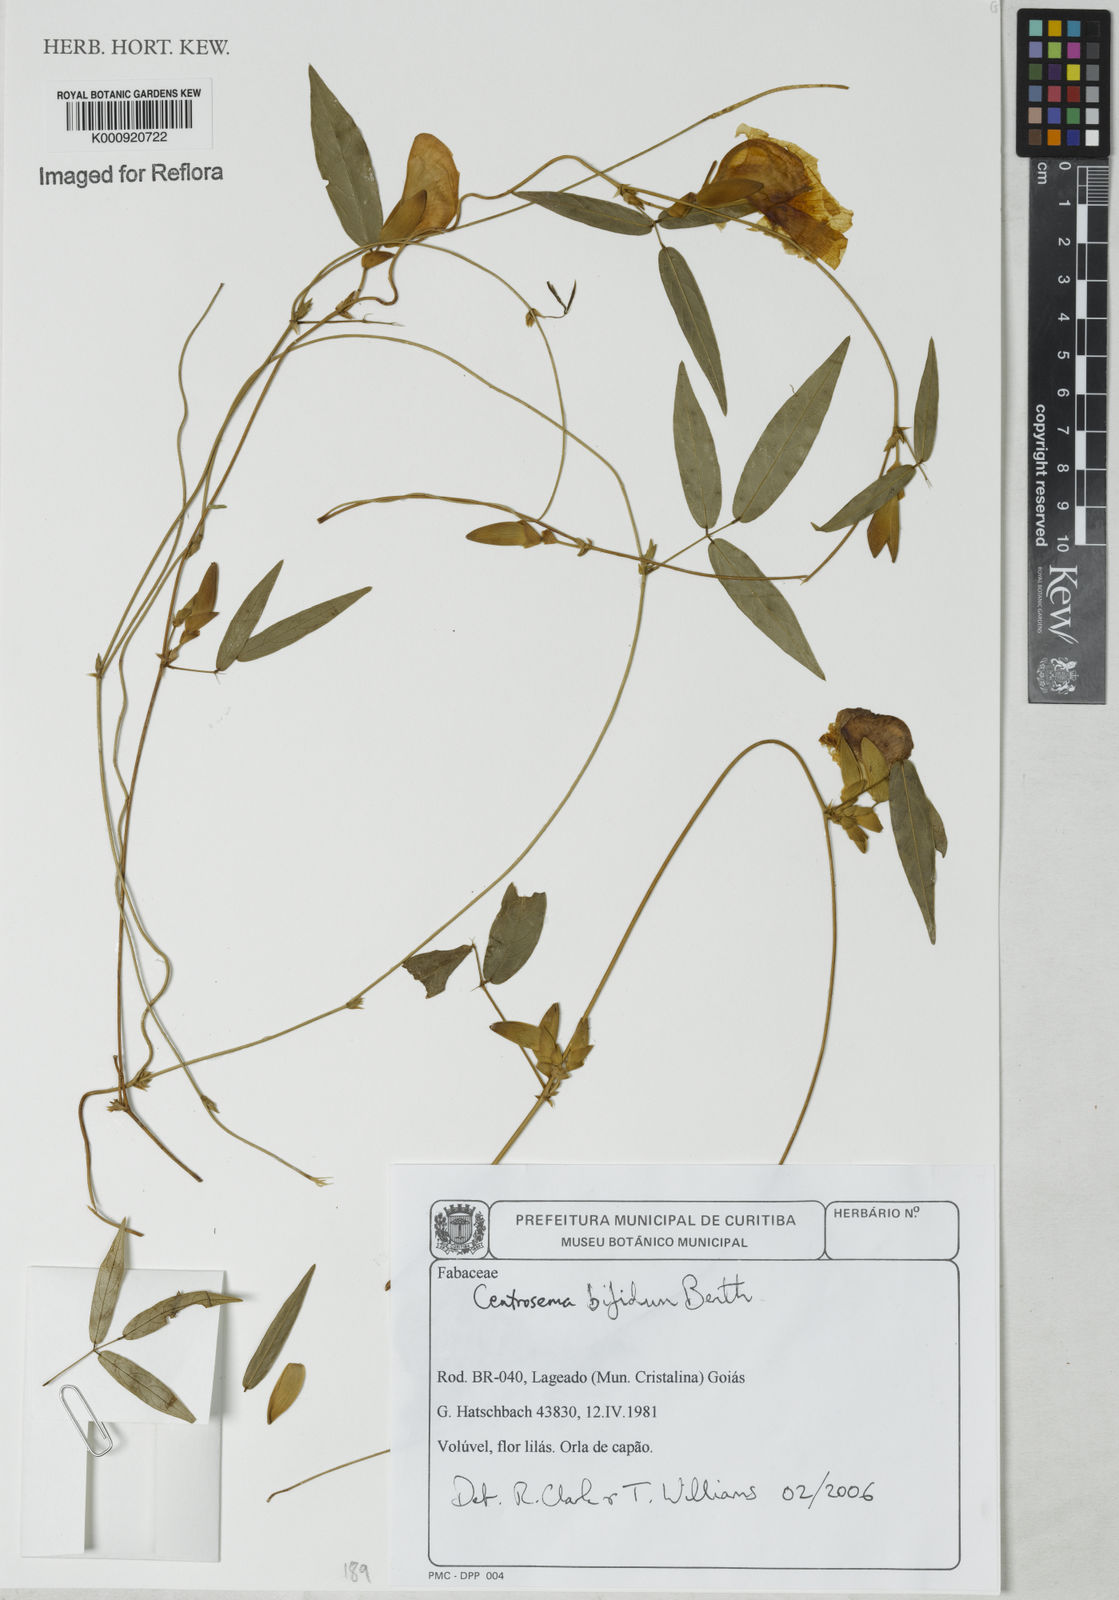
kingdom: Plantae
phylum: Tracheophyta
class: Magnoliopsida
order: Fabales
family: Fabaceae
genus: Centrosema
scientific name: Centrosema bifidum
